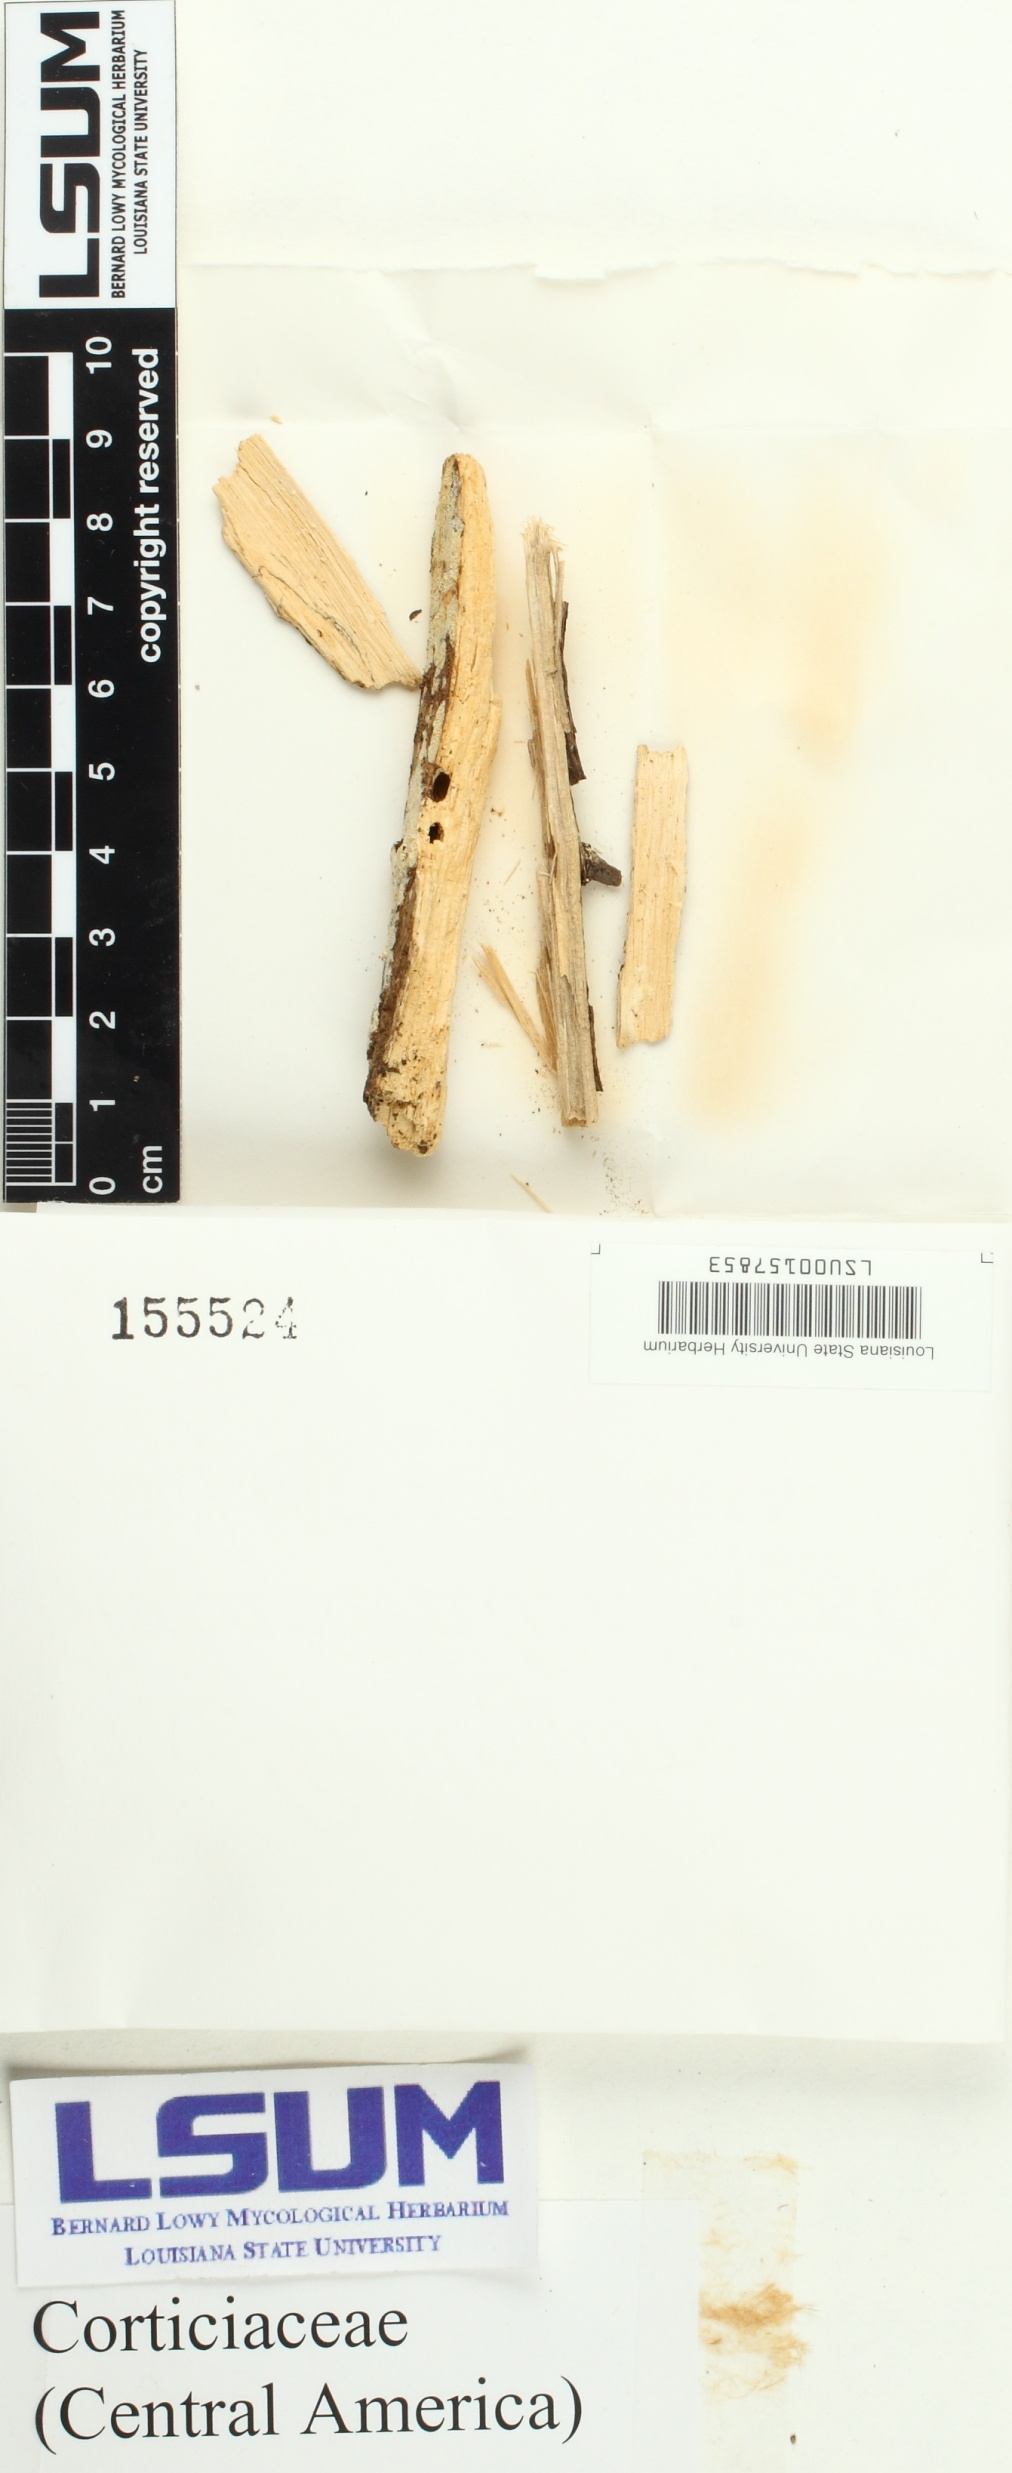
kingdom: Fungi
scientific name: Fungi
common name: Fungi
